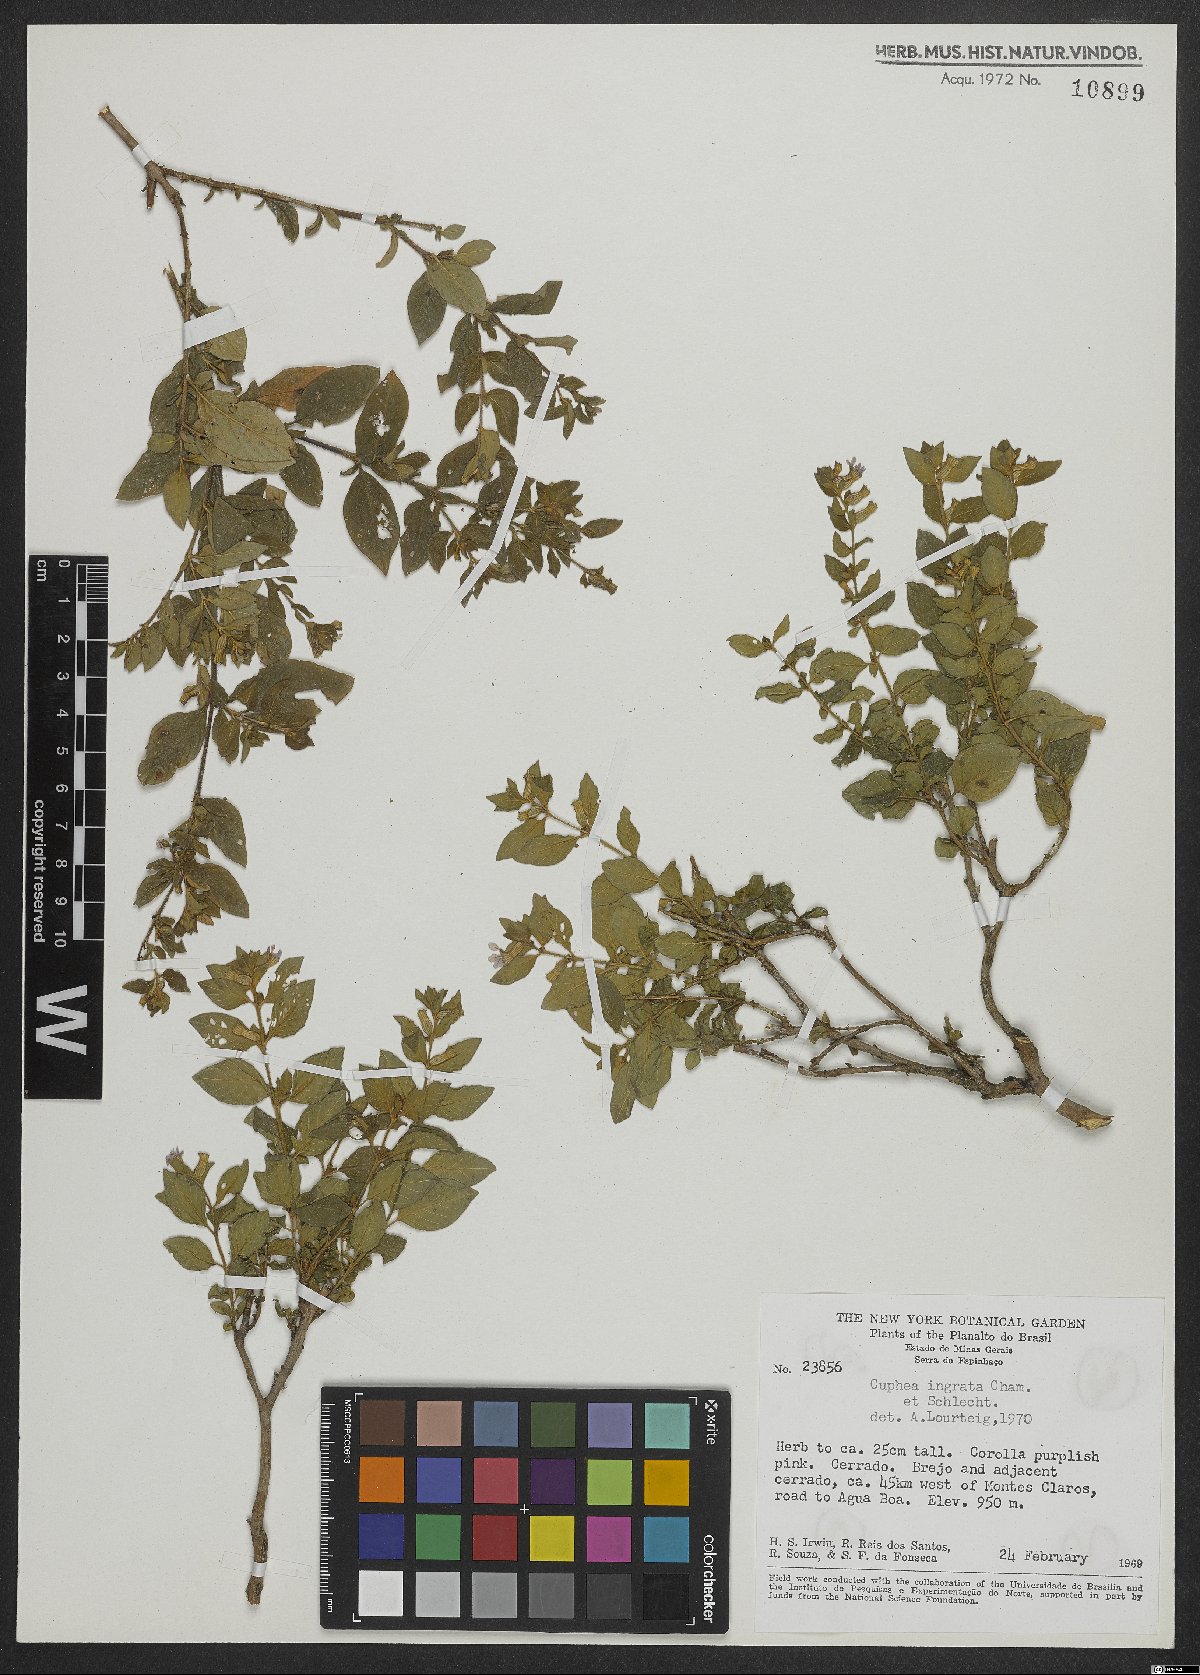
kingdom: Plantae
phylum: Tracheophyta
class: Magnoliopsida
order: Myrtales
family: Lythraceae
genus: Cuphea
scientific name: Cuphea ingrata
